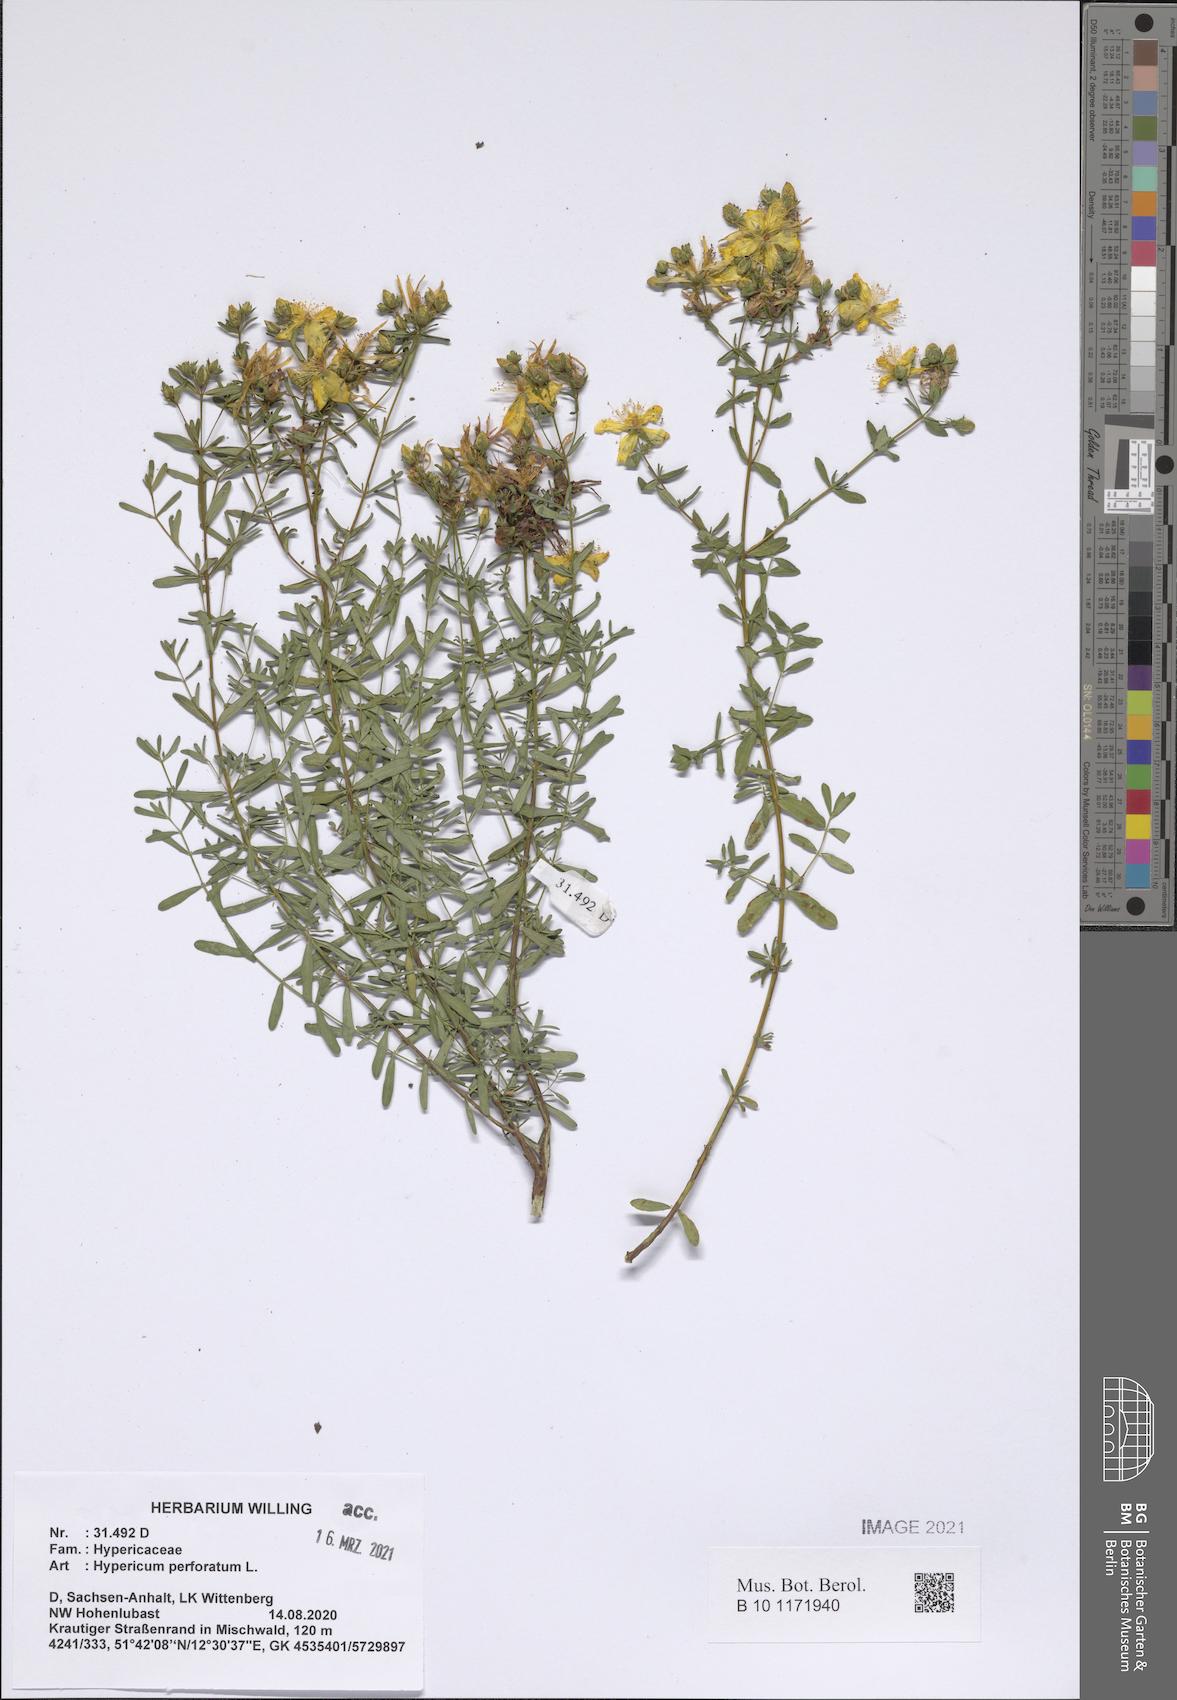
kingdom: Plantae
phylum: Tracheophyta
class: Magnoliopsida
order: Malpighiales
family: Hypericaceae
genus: Hypericum
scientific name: Hypericum perfoliatum
